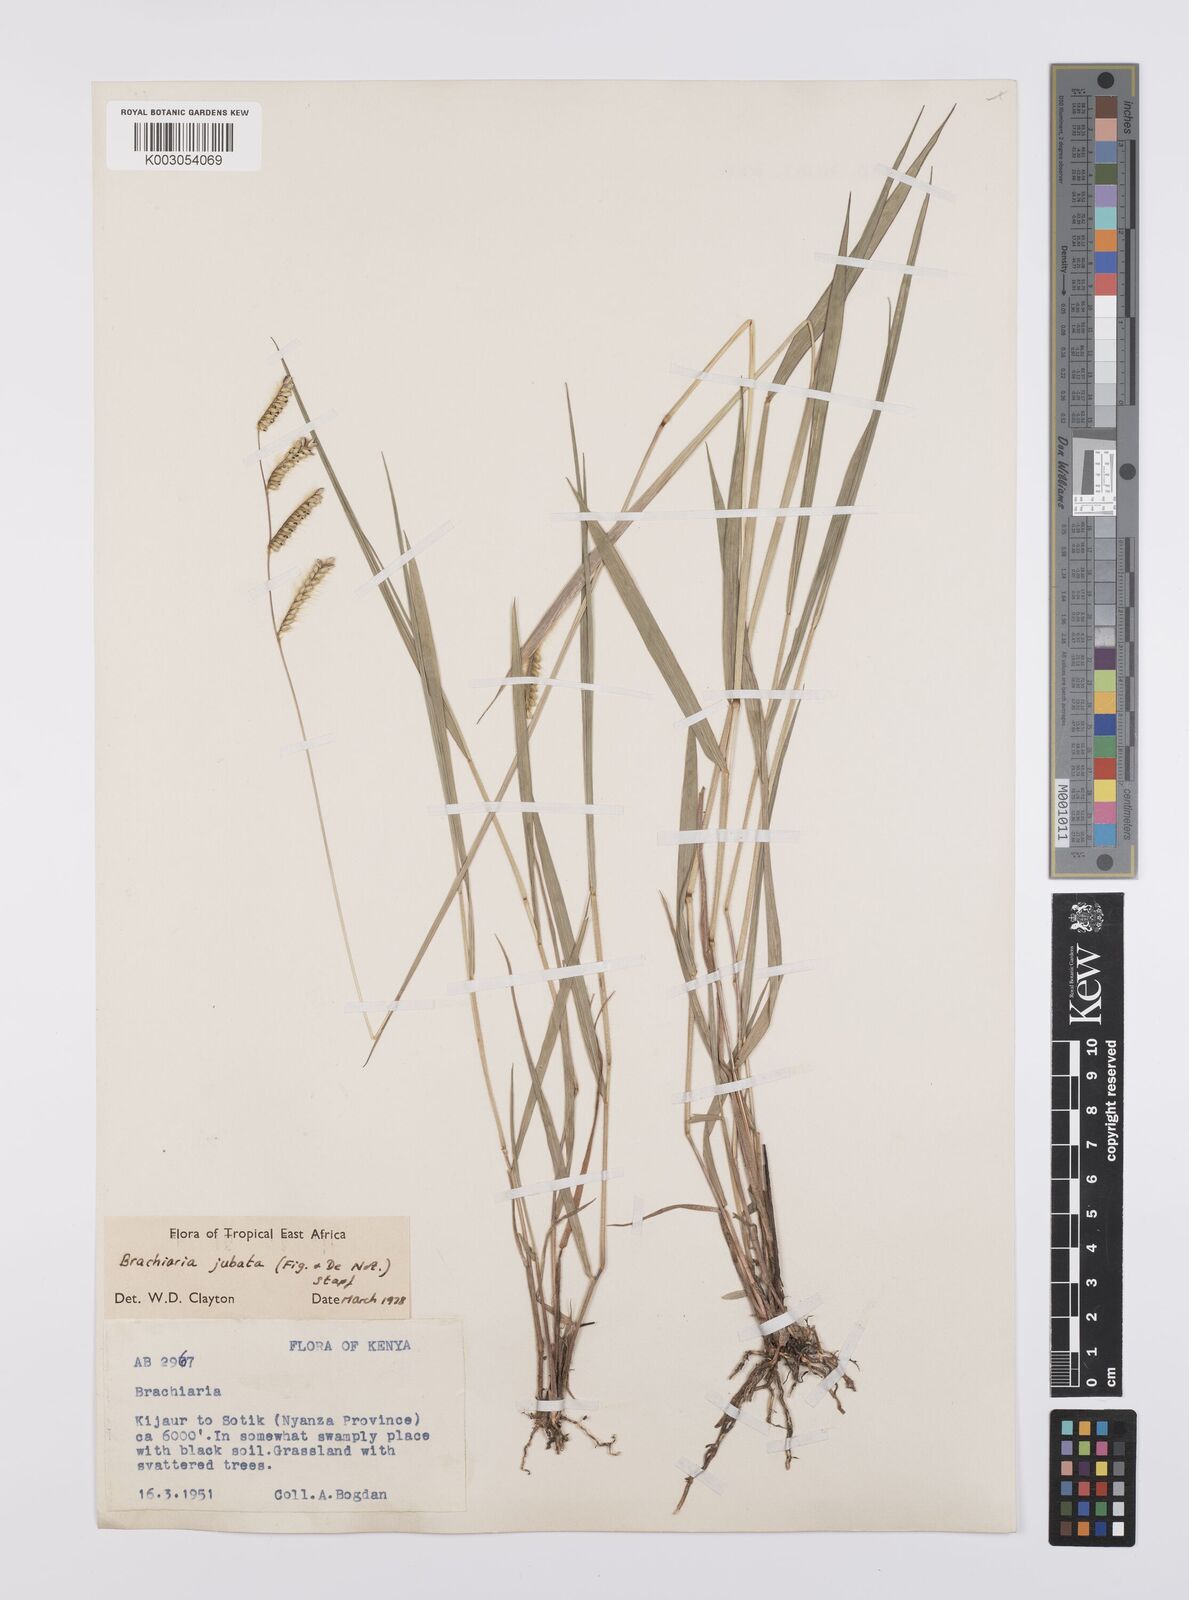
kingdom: Plantae
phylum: Tracheophyta
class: Liliopsida
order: Poales
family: Poaceae
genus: Urochloa
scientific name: Urochloa jubata
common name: Buffalograss
